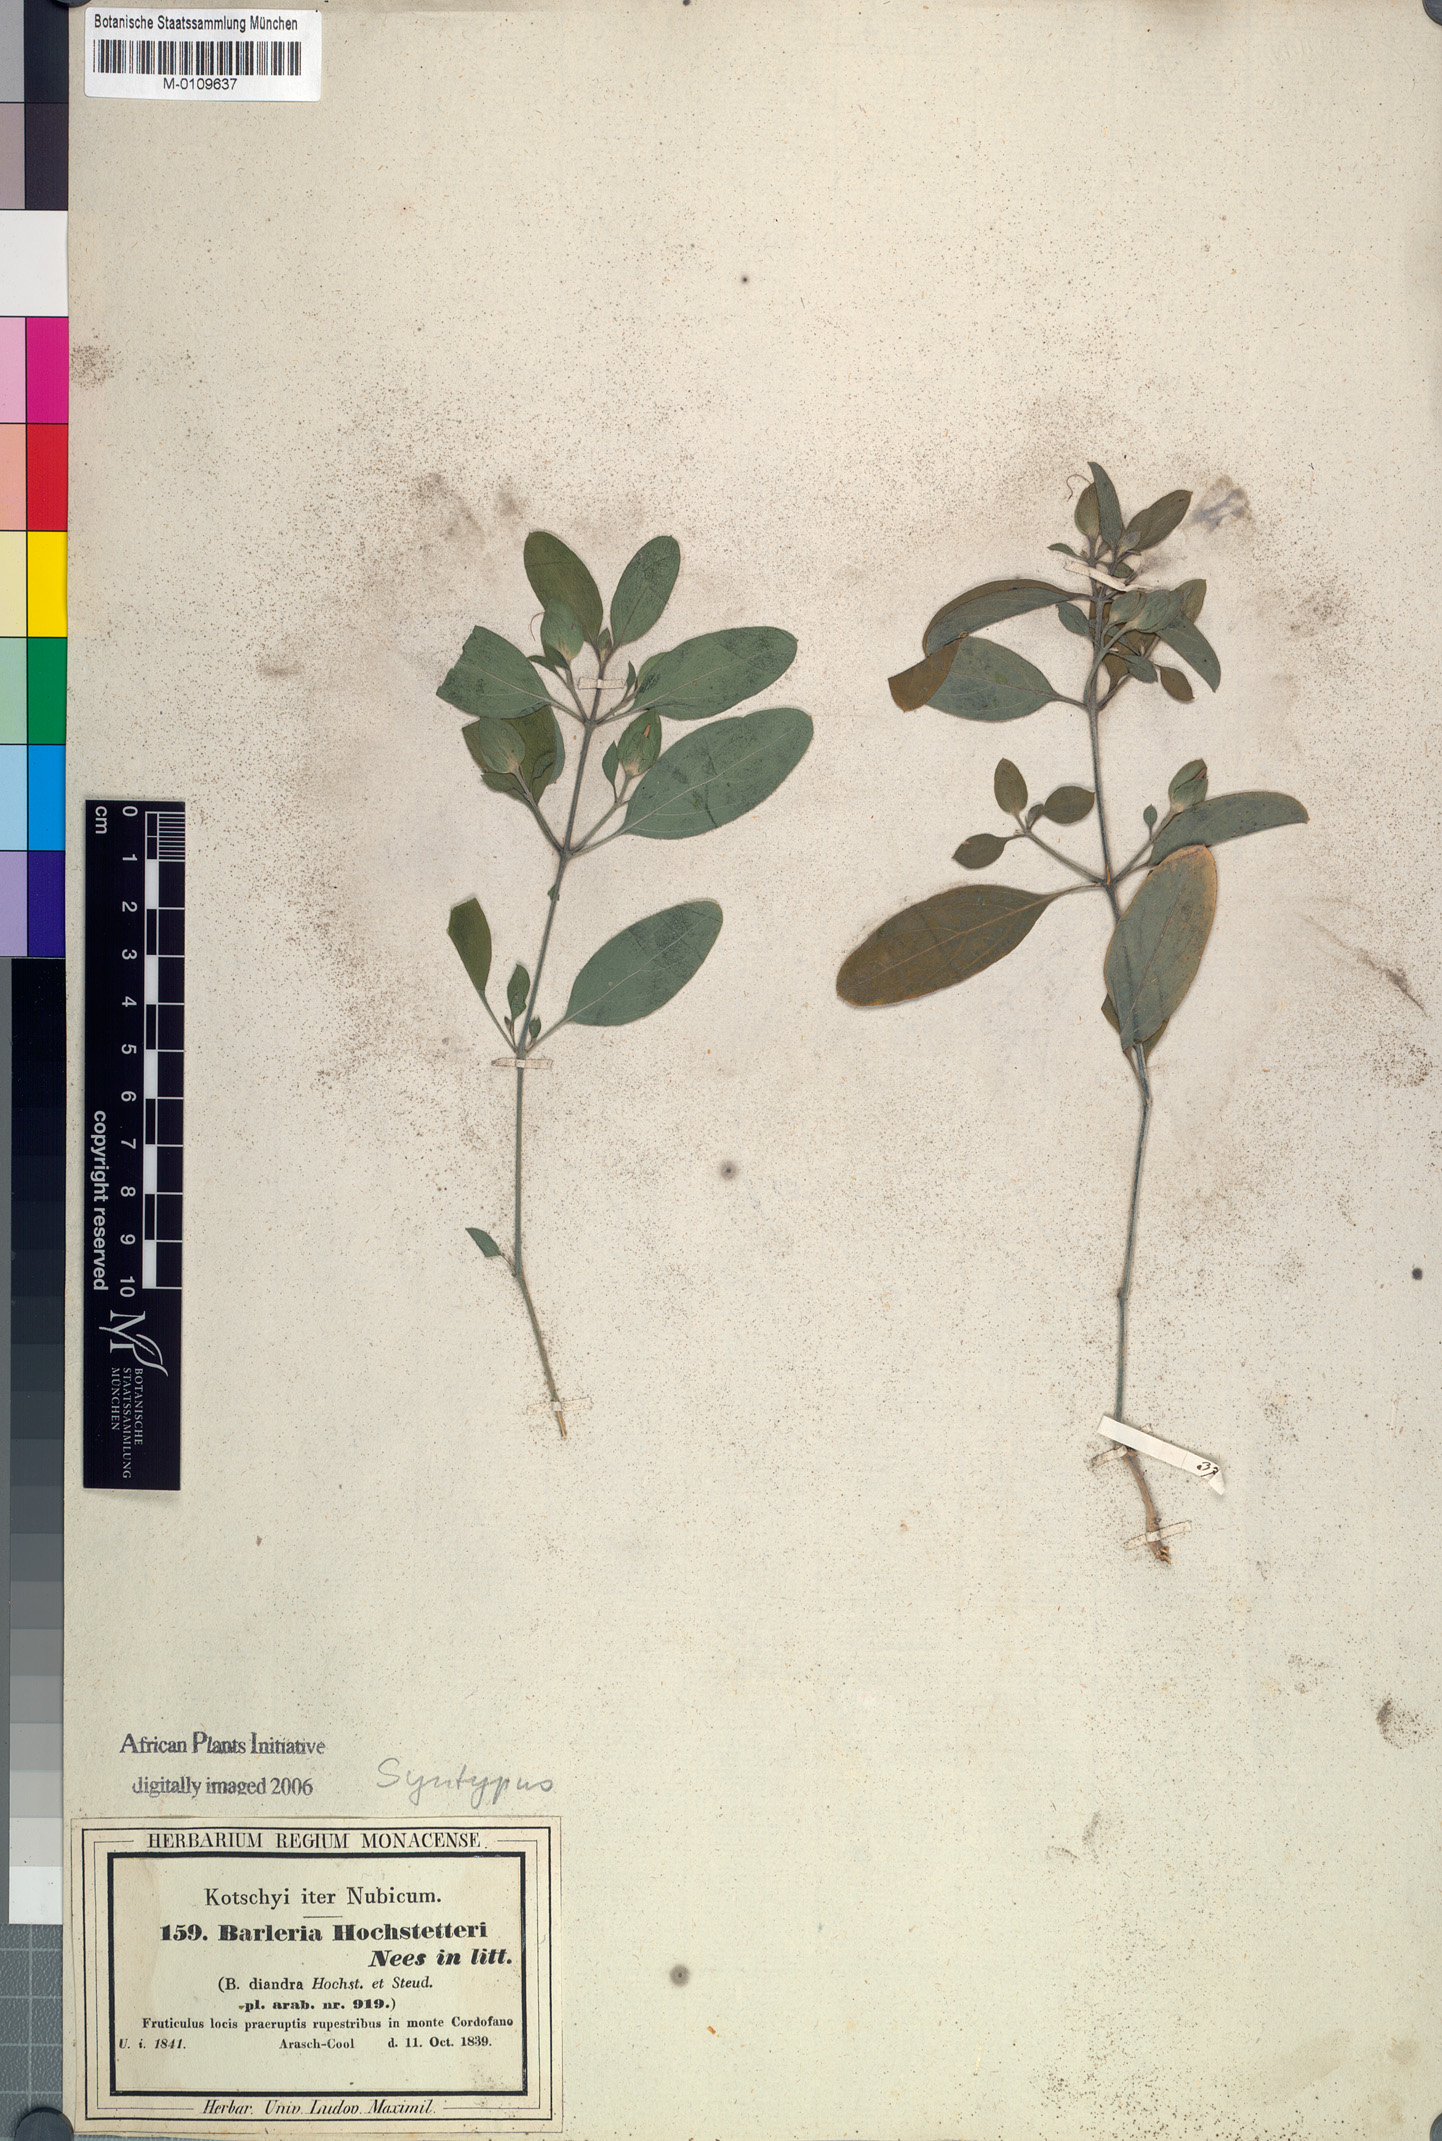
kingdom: Plantae
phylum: Tracheophyta
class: Magnoliopsida
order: Lamiales
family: Acanthaceae
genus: Barleria
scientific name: Barleria hochstetteri
